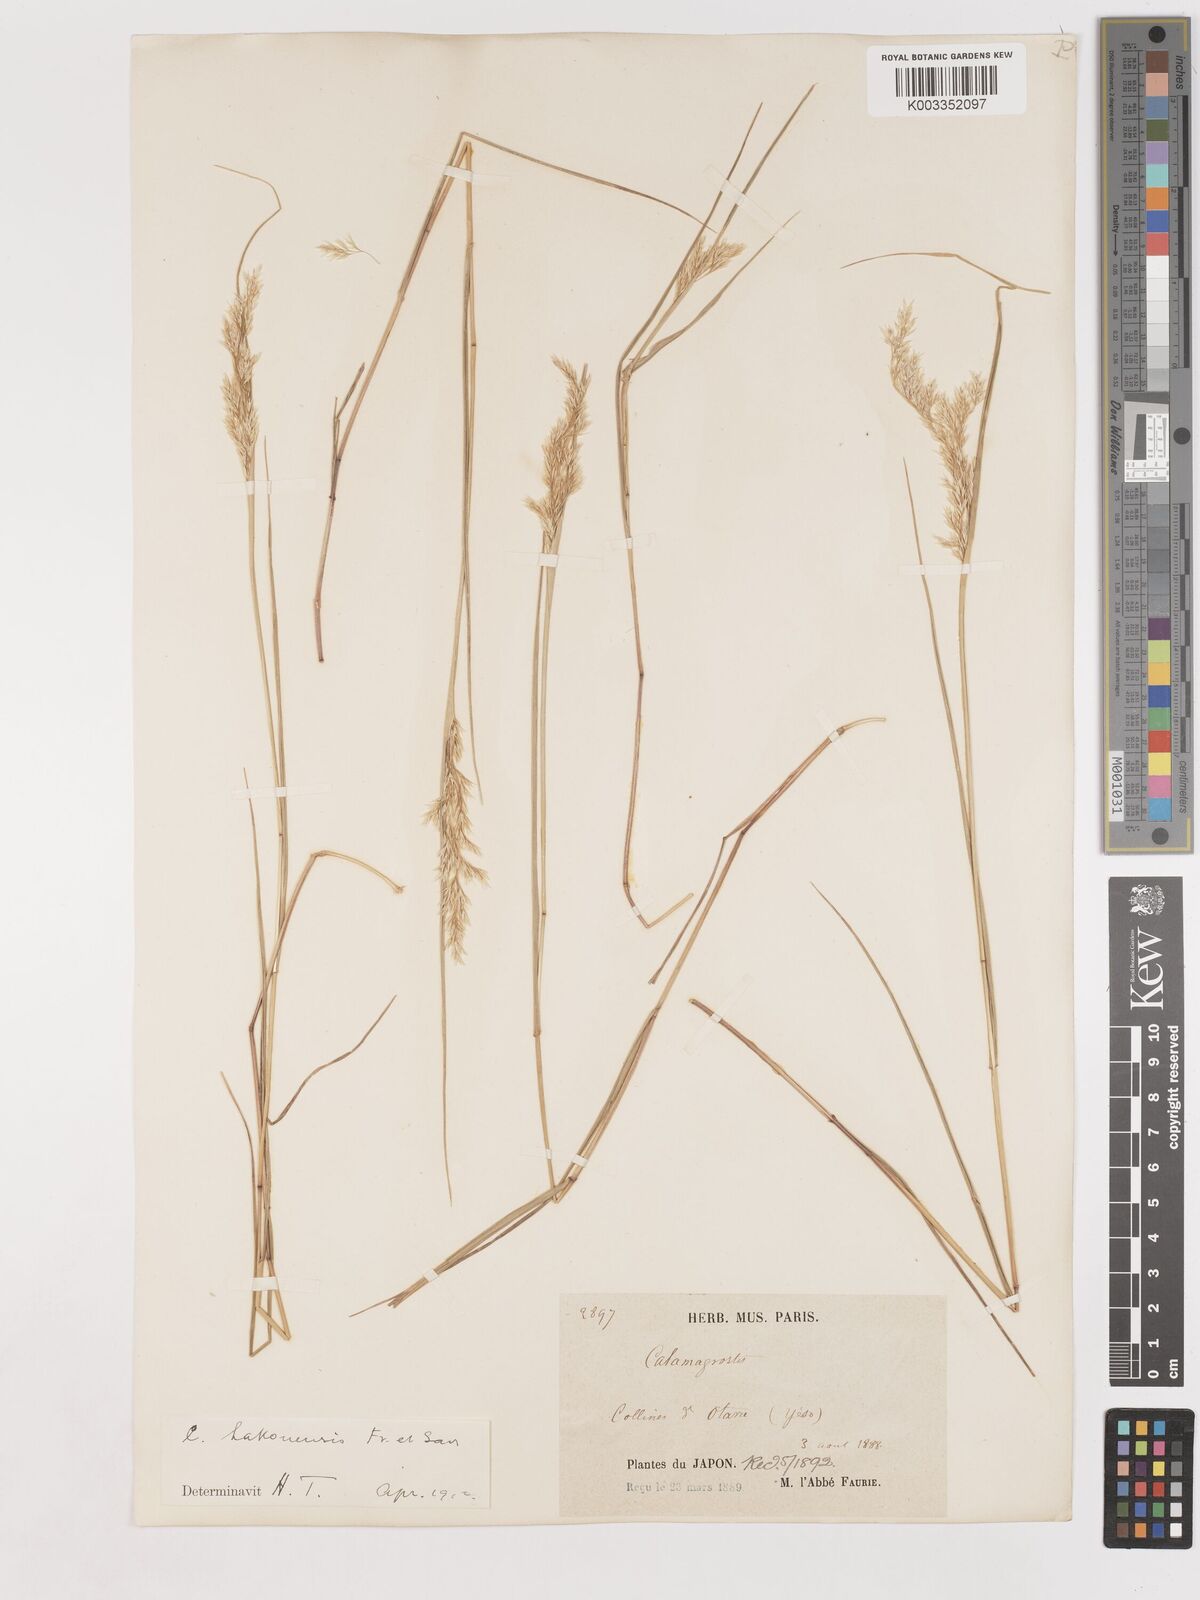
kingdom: Plantae
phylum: Tracheophyta
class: Liliopsida
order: Poales
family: Poaceae
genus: Calamagrostis
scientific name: Calamagrostis hakonensis
